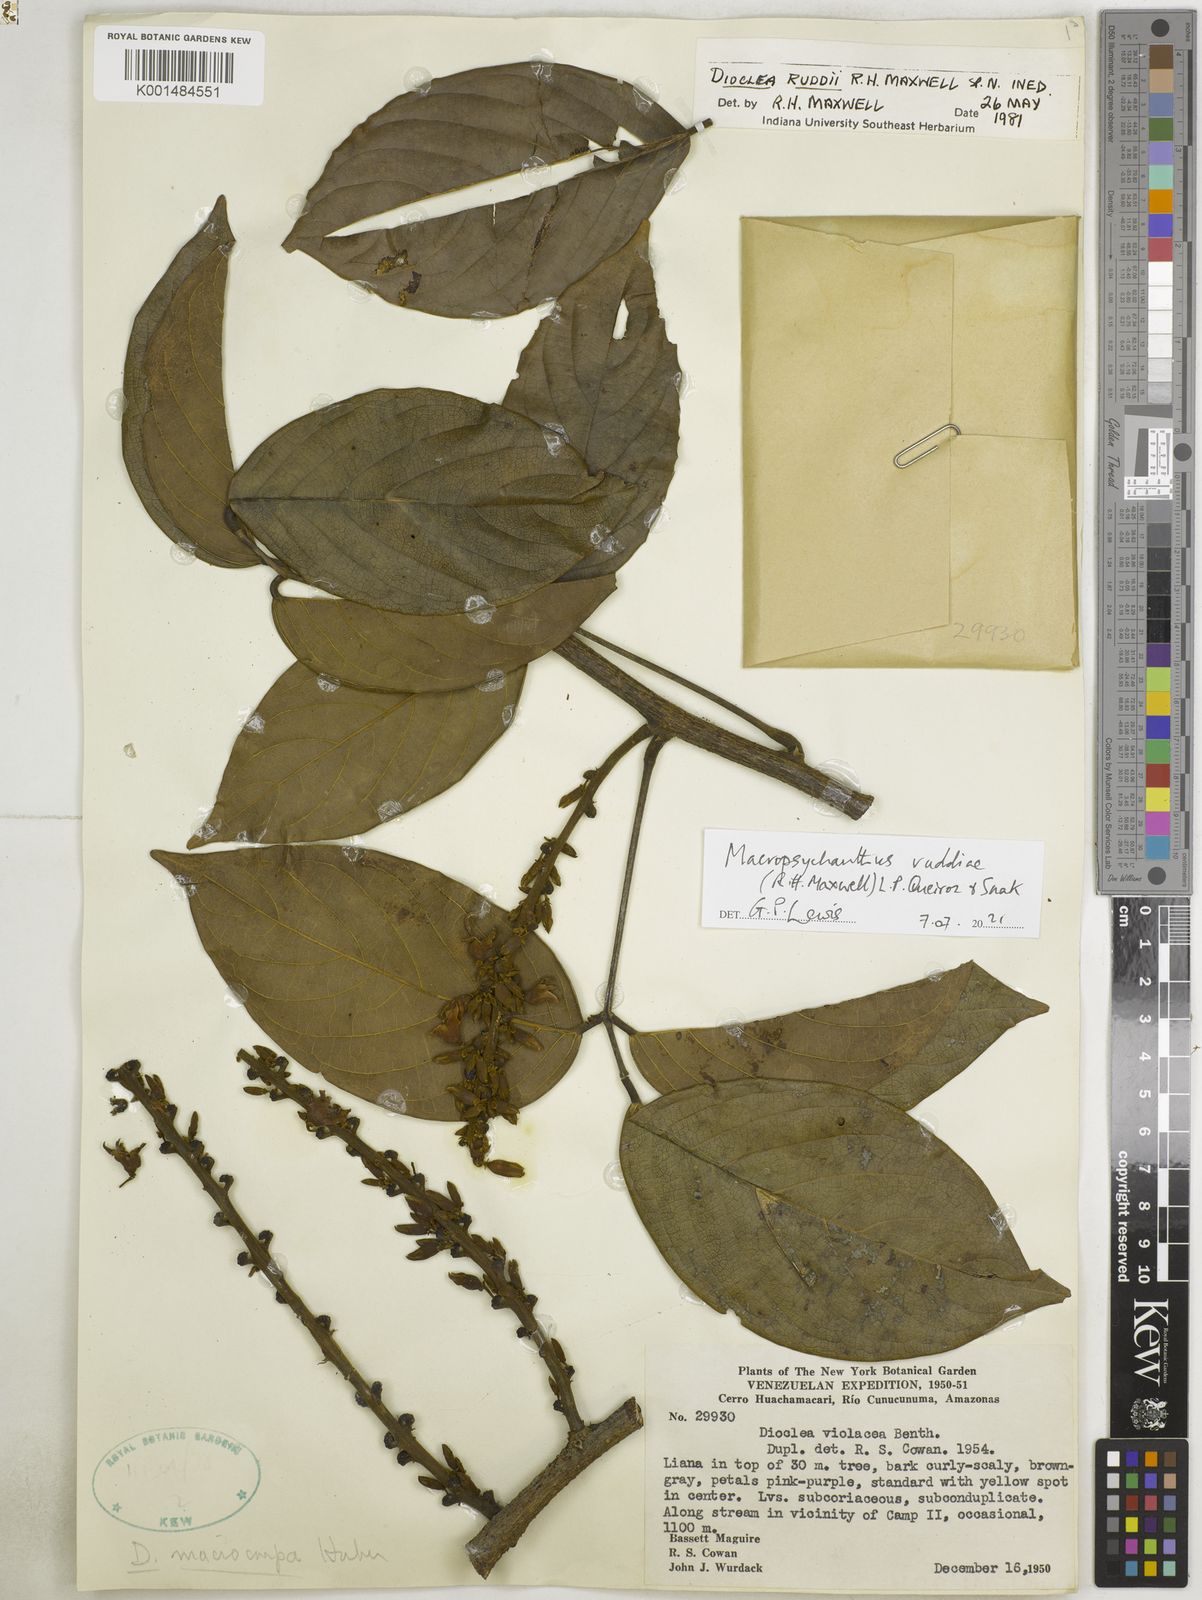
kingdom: Plantae
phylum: Tracheophyta
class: Magnoliopsida
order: Fabales
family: Fabaceae
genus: Macropsychanthus
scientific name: Macropsychanthus
